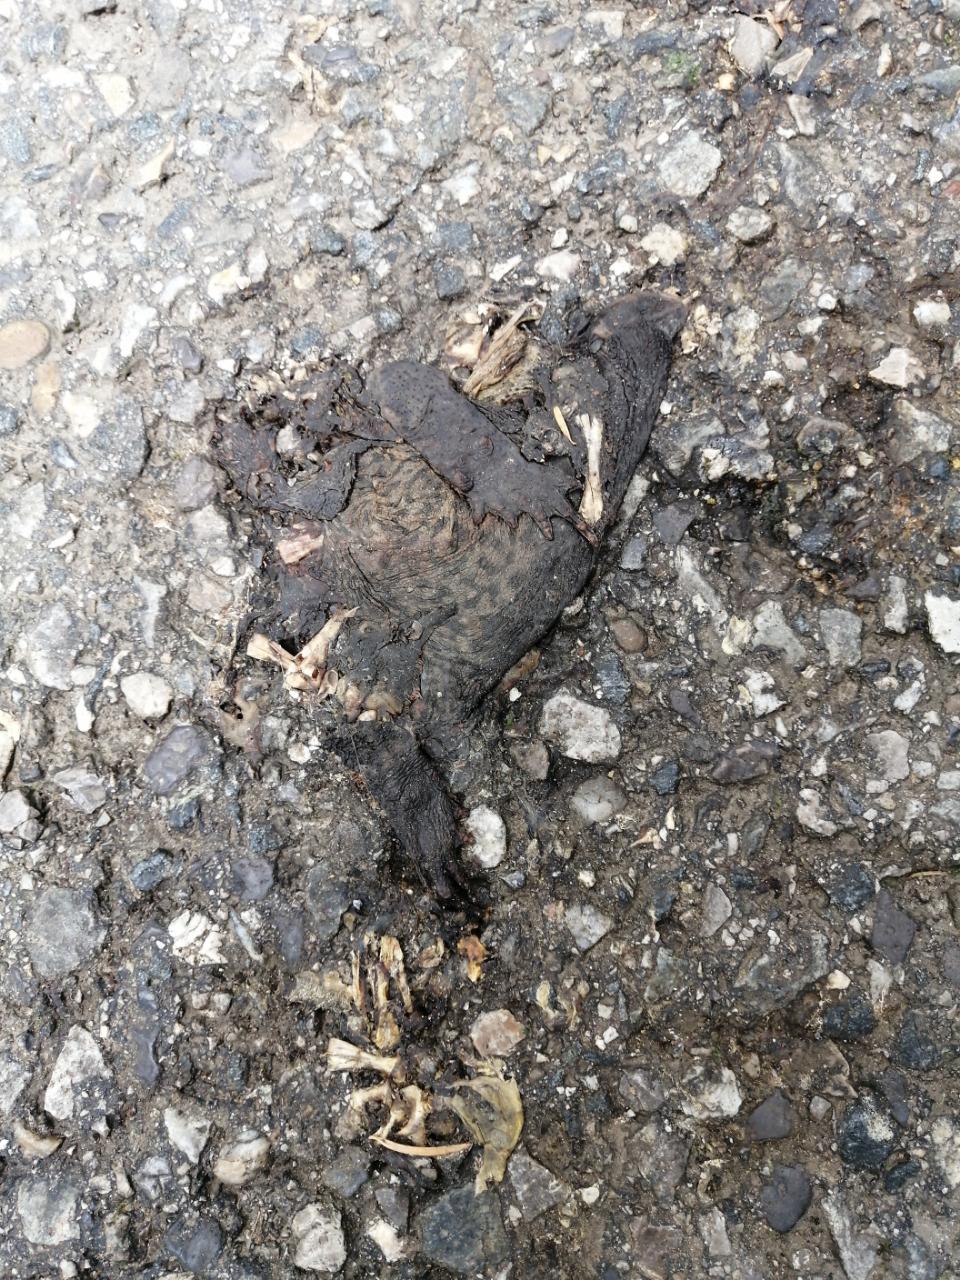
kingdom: Animalia
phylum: Chordata
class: Amphibia
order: Anura
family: Bufonidae
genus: Bufo
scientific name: Bufo bufo
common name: Common toad
